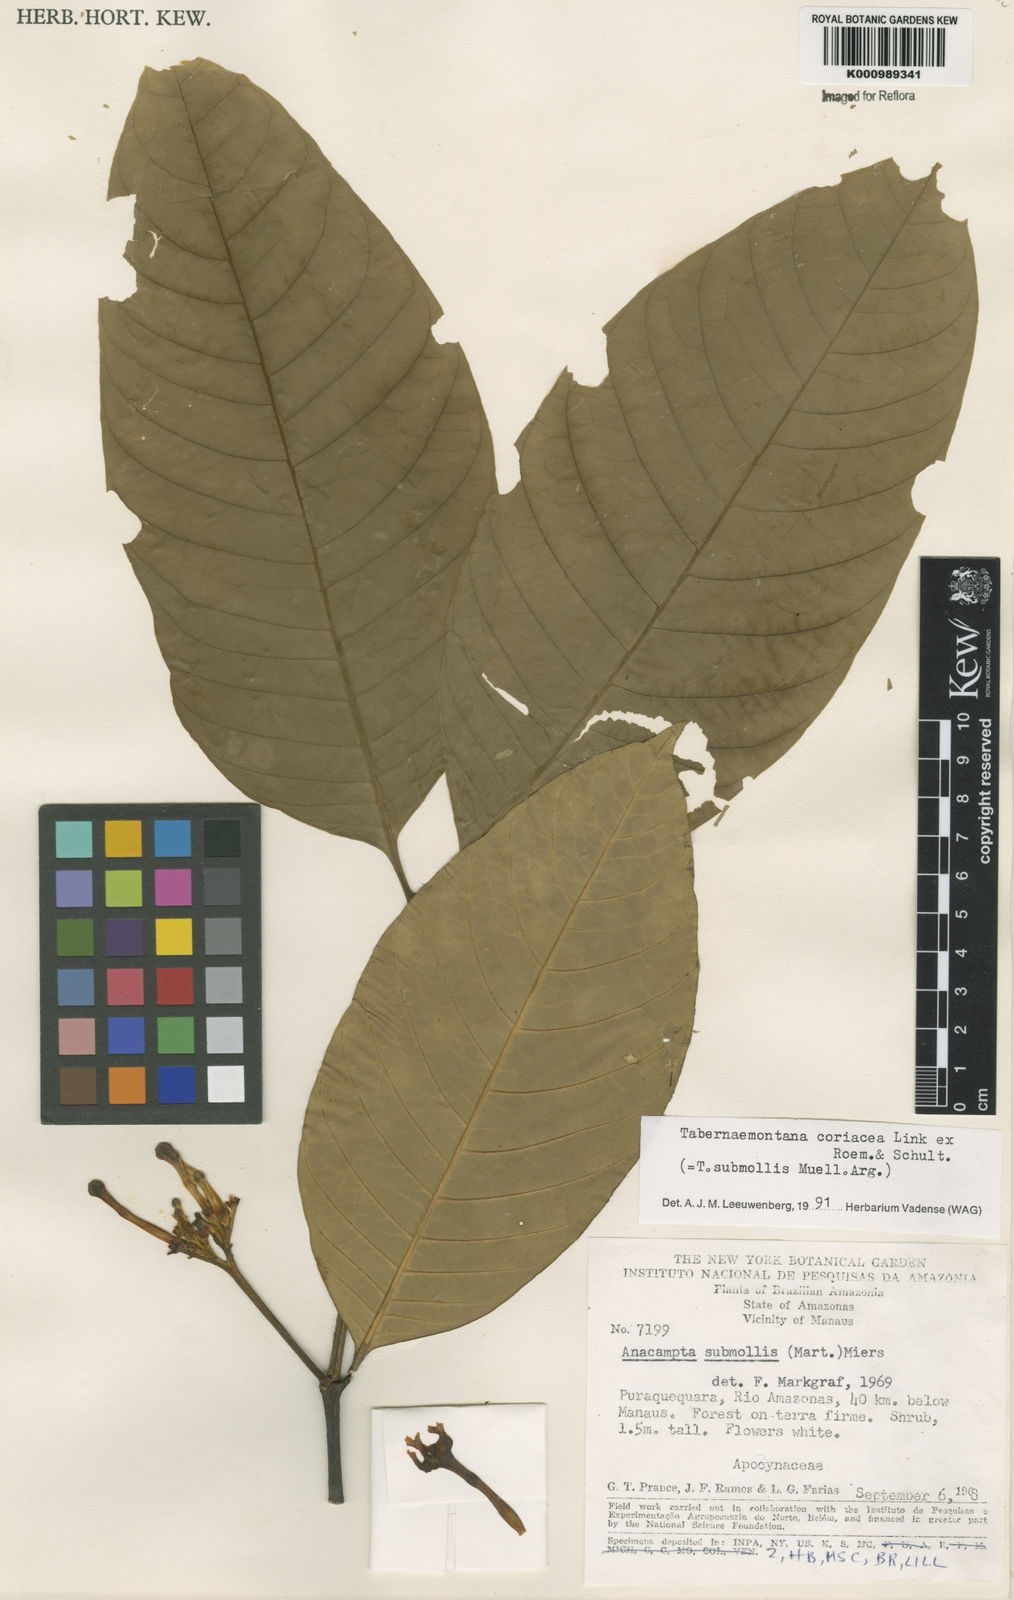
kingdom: Plantae
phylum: Tracheophyta
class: Magnoliopsida
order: Gentianales
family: Apocynaceae
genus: Tabernaemontana
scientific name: Tabernaemontana coriacea
